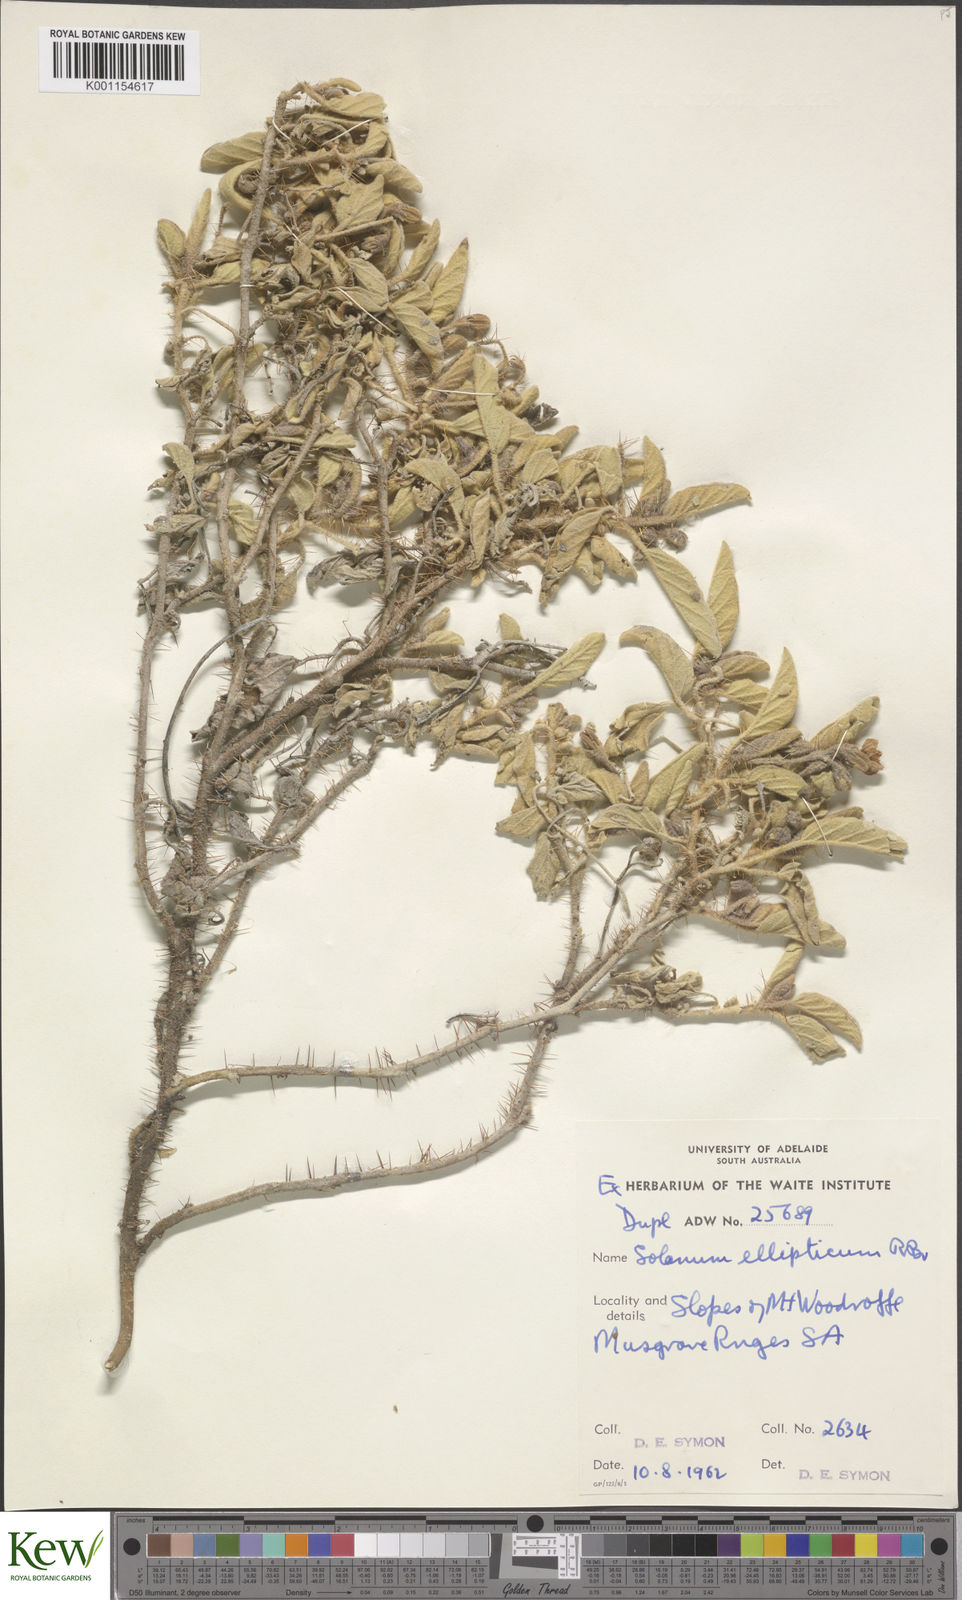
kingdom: Plantae
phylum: Tracheophyta
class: Magnoliopsida
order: Solanales
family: Solanaceae
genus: Solanum
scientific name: Solanum ellipticum
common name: Potato-bush
